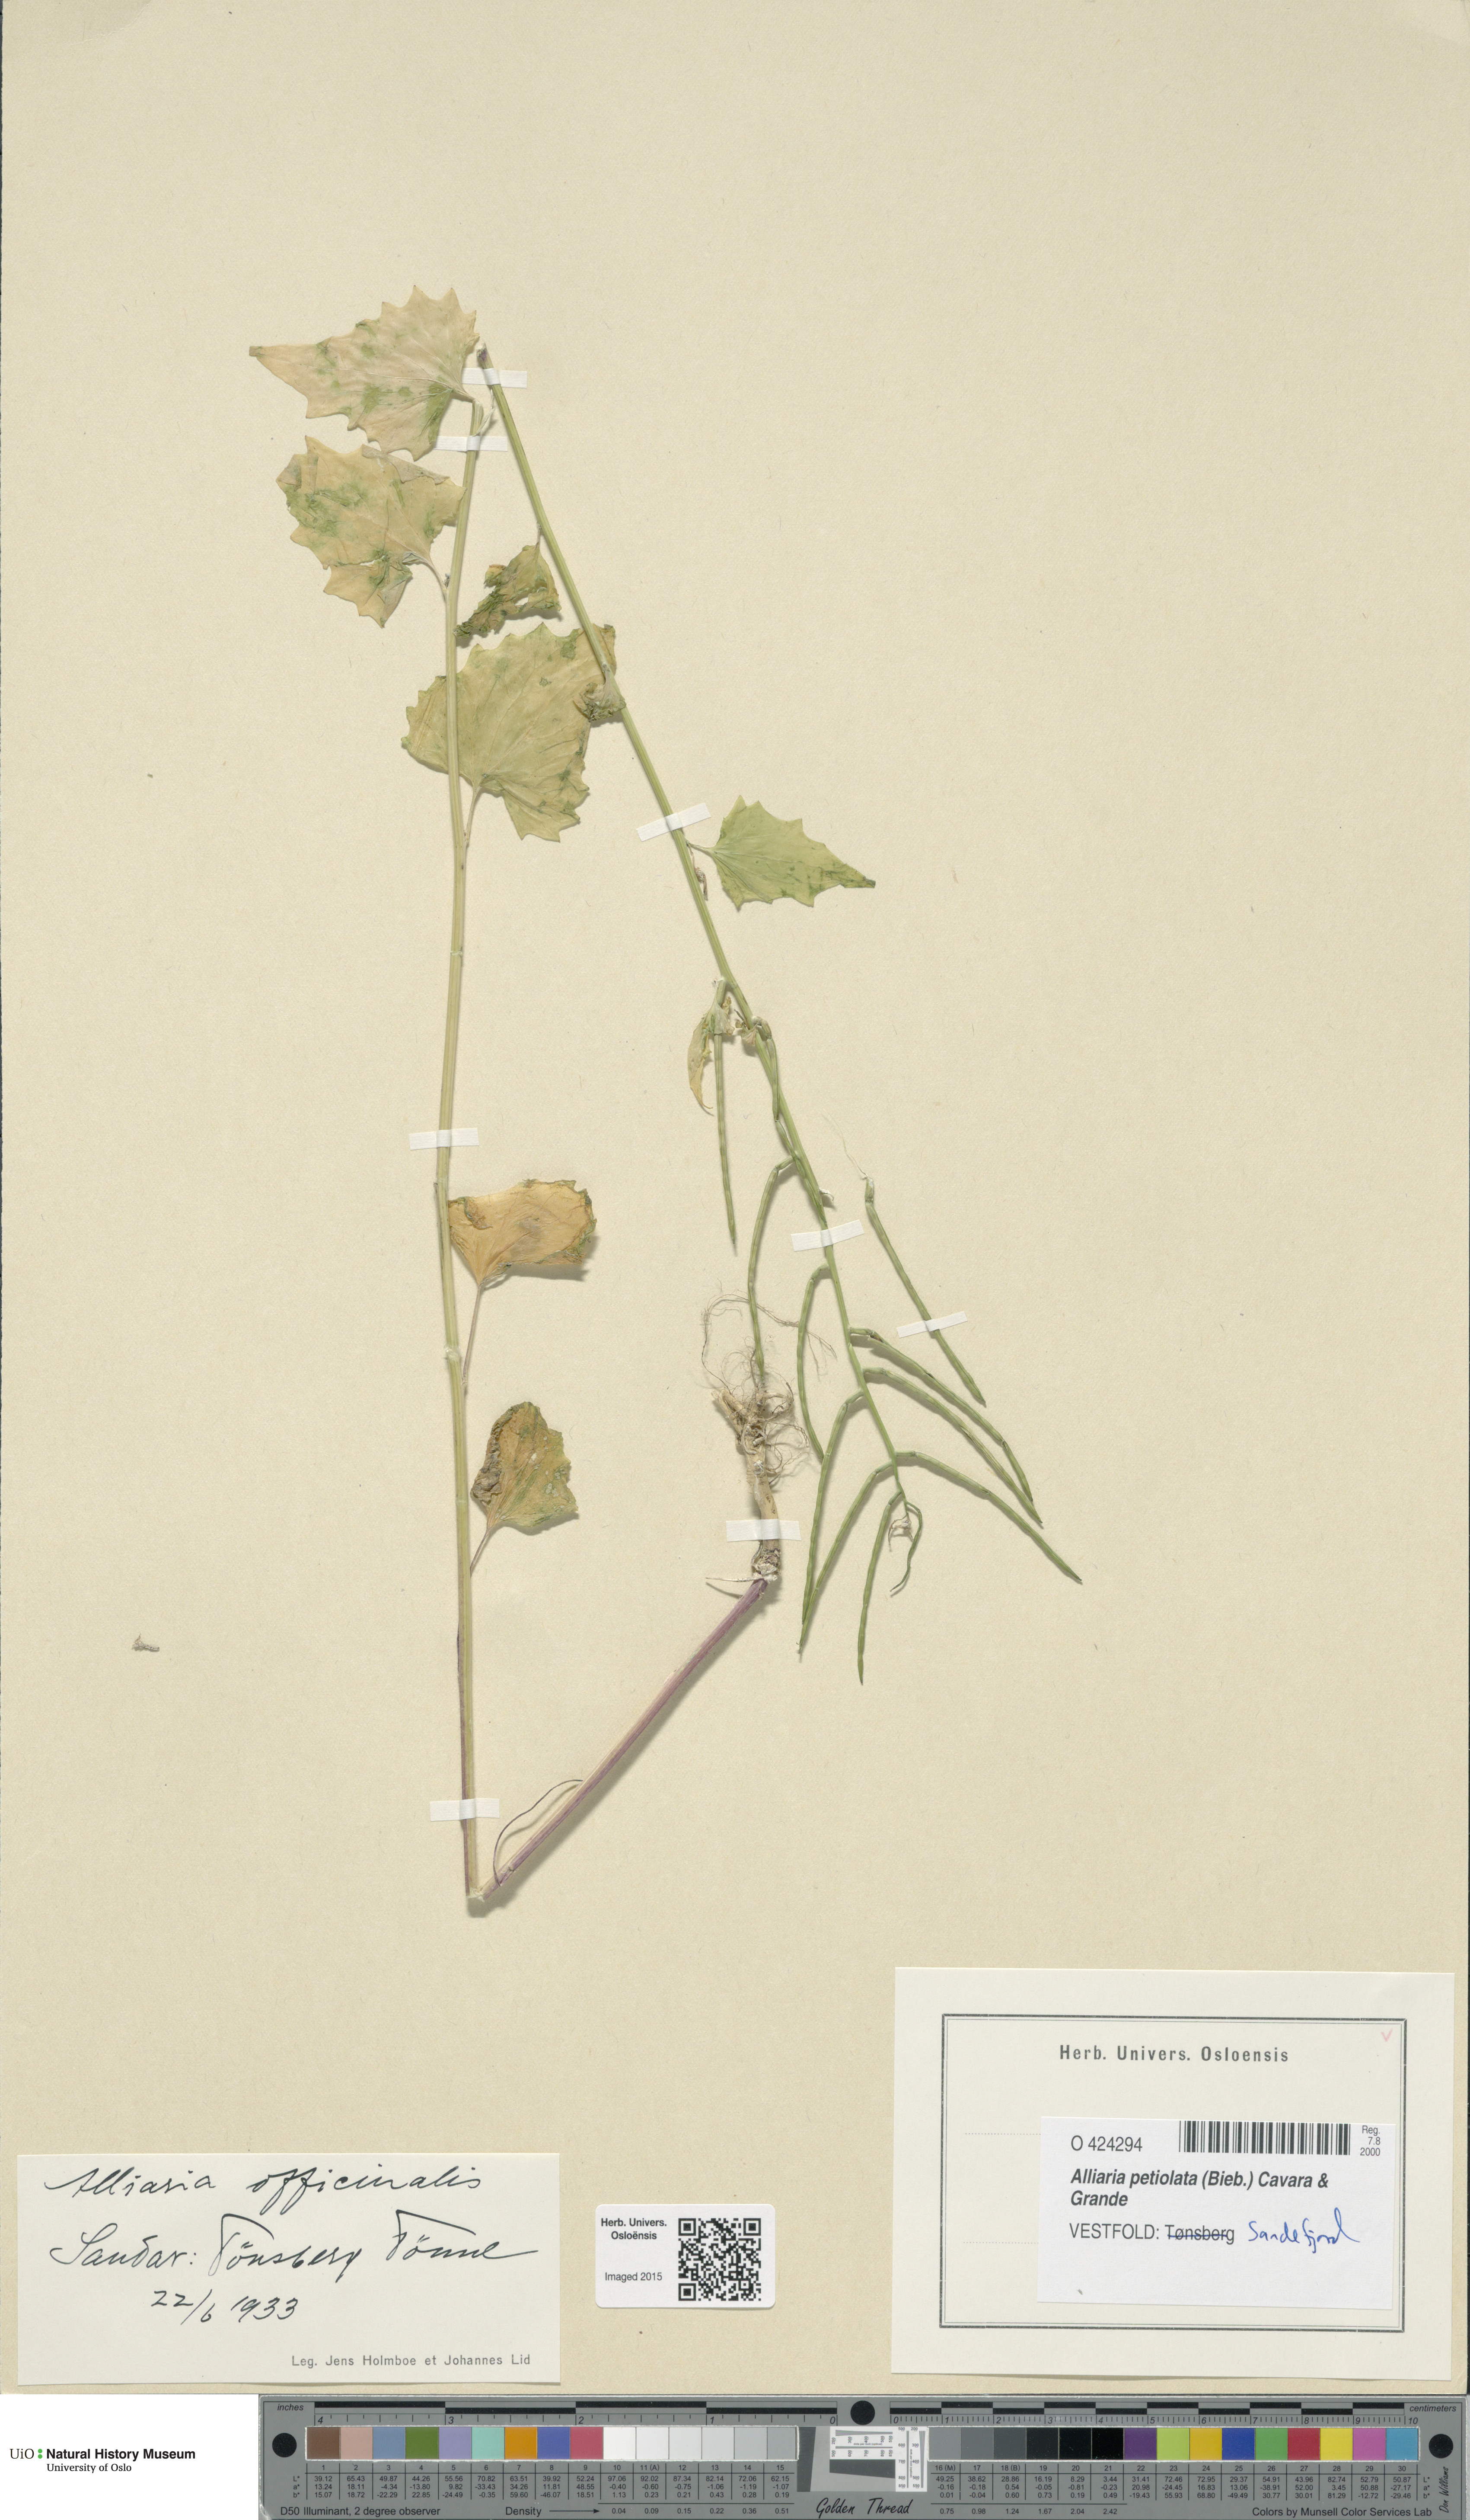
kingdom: Plantae
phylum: Tracheophyta
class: Magnoliopsida
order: Brassicales
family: Brassicaceae
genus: Alliaria
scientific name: Alliaria petiolata
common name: Garlic mustard
